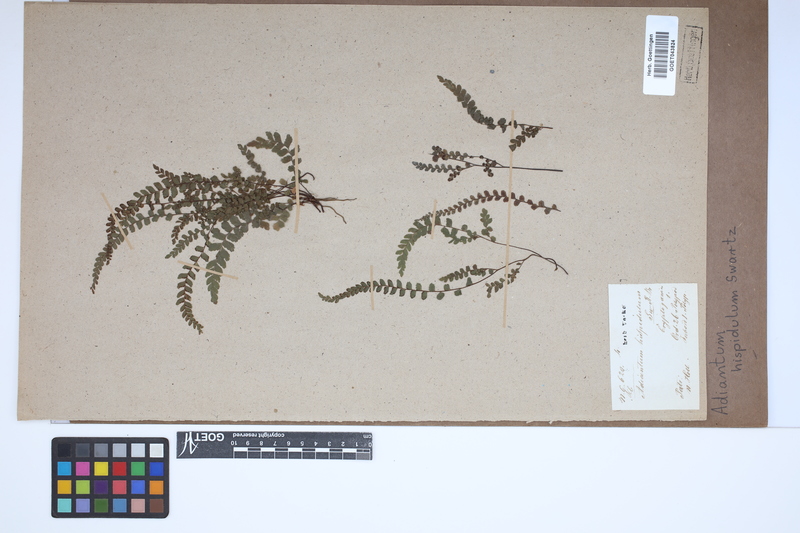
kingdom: Plantae
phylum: Tracheophyta
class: Polypodiopsida
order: Polypodiales
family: Pteridaceae
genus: Adiantum
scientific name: Adiantum hispidulum
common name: Rough maidenhair
